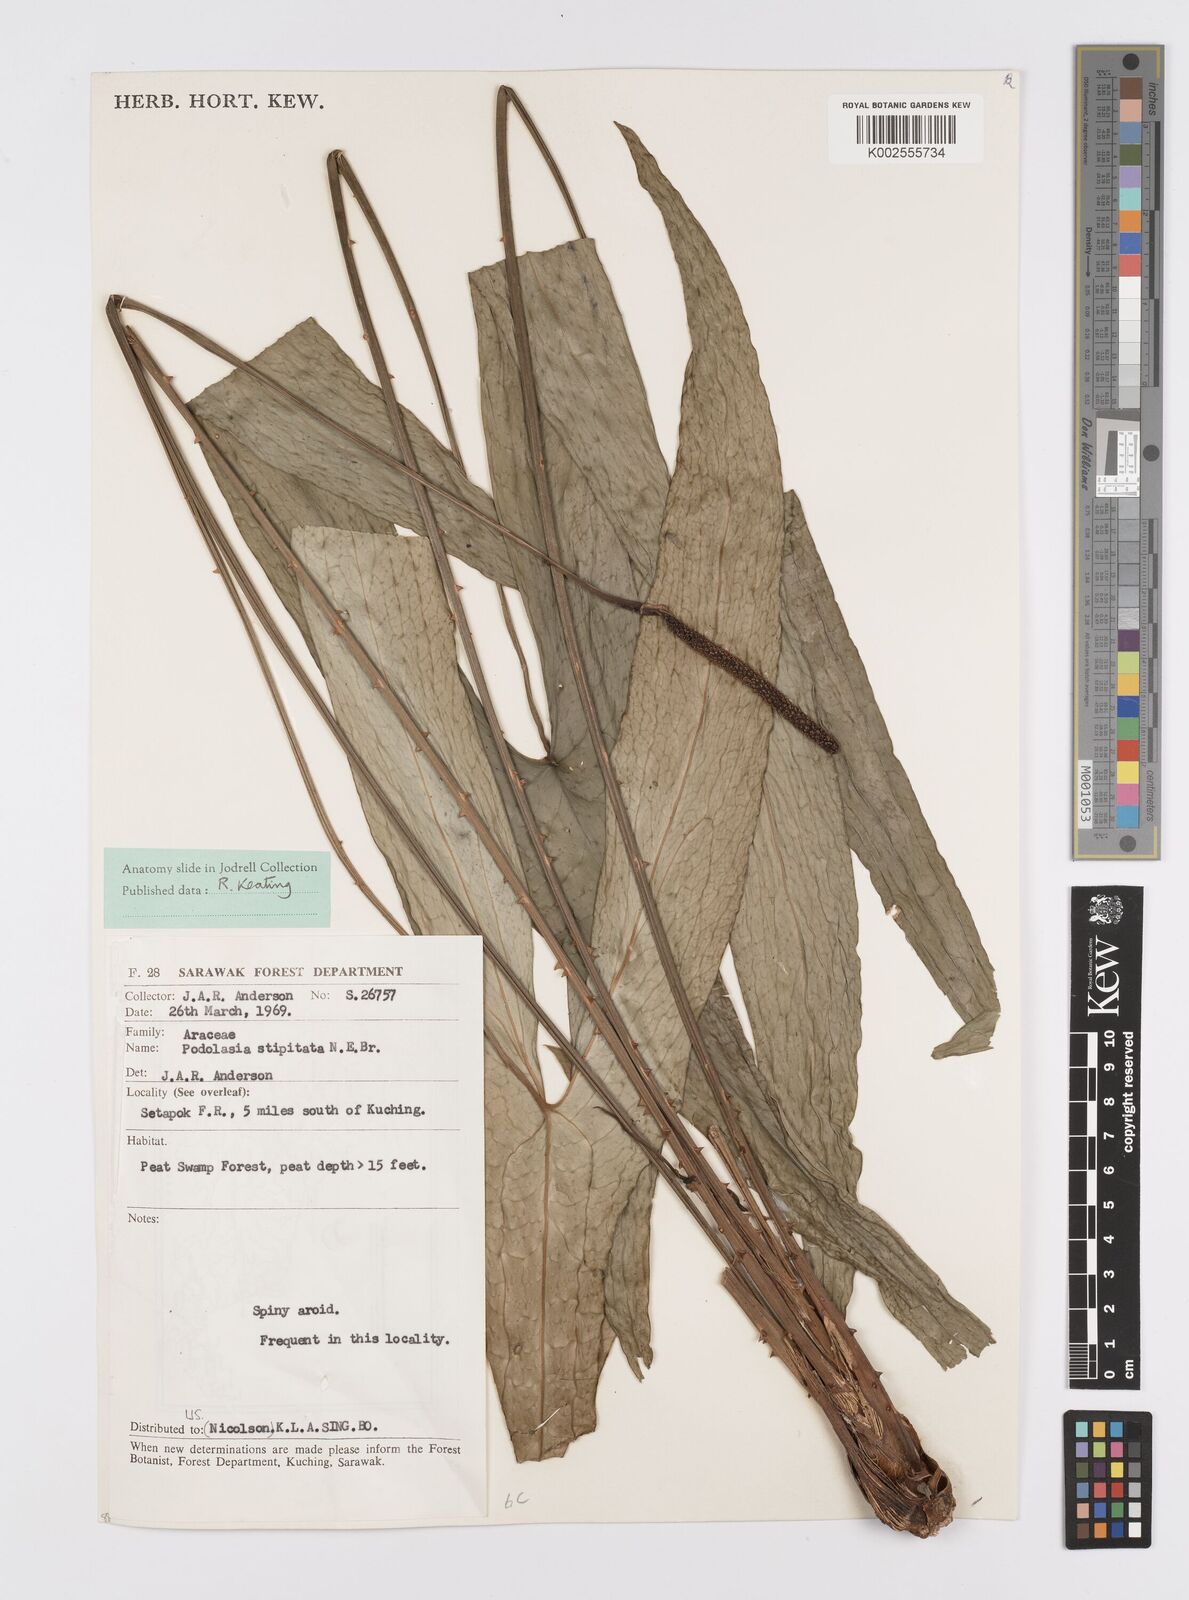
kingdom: Plantae
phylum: Tracheophyta
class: Liliopsida
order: Alismatales
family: Araceae
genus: Podolasia
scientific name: Podolasia stipitata
